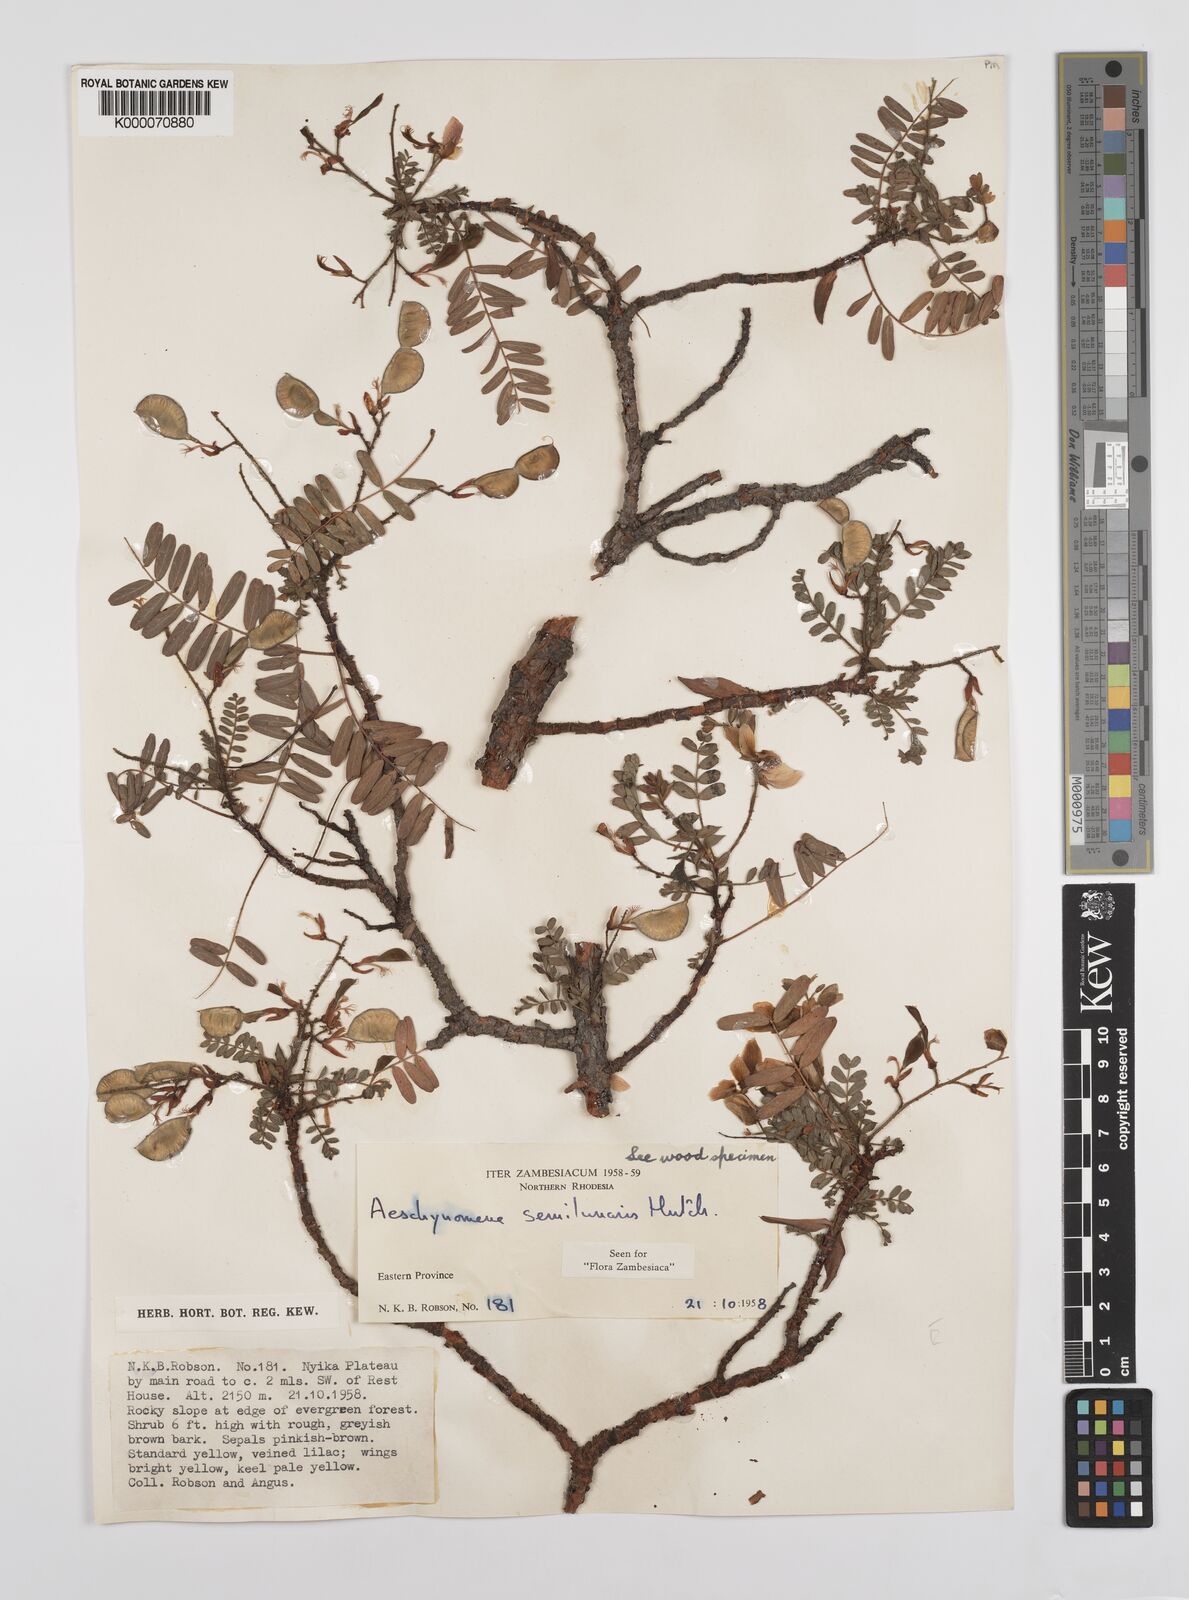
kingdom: Plantae
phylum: Tracheophyta
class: Magnoliopsida
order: Fabales
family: Fabaceae
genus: Aeschynomene
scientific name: Aeschynomene semilunaris
